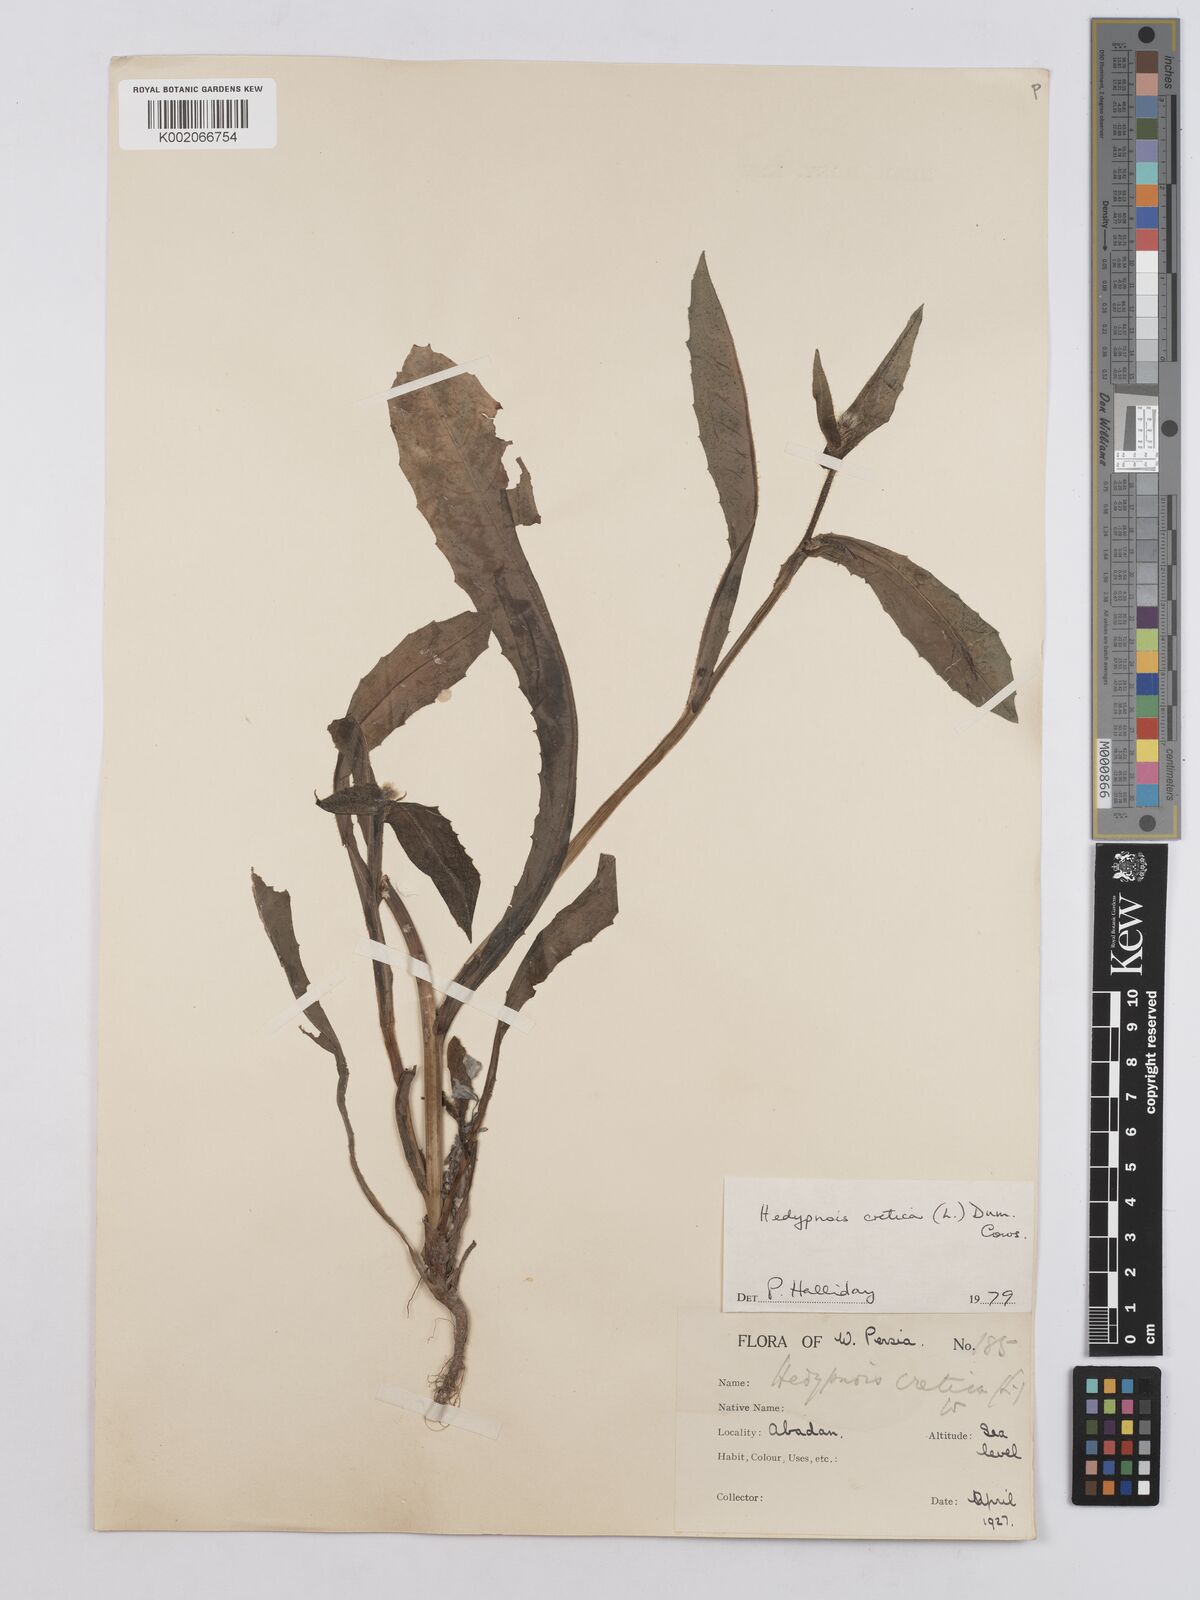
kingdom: Plantae
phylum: Tracheophyta
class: Magnoliopsida
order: Asterales
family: Asteraceae
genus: Hedypnois
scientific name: Hedypnois cretica
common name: Scaly hawkbit
